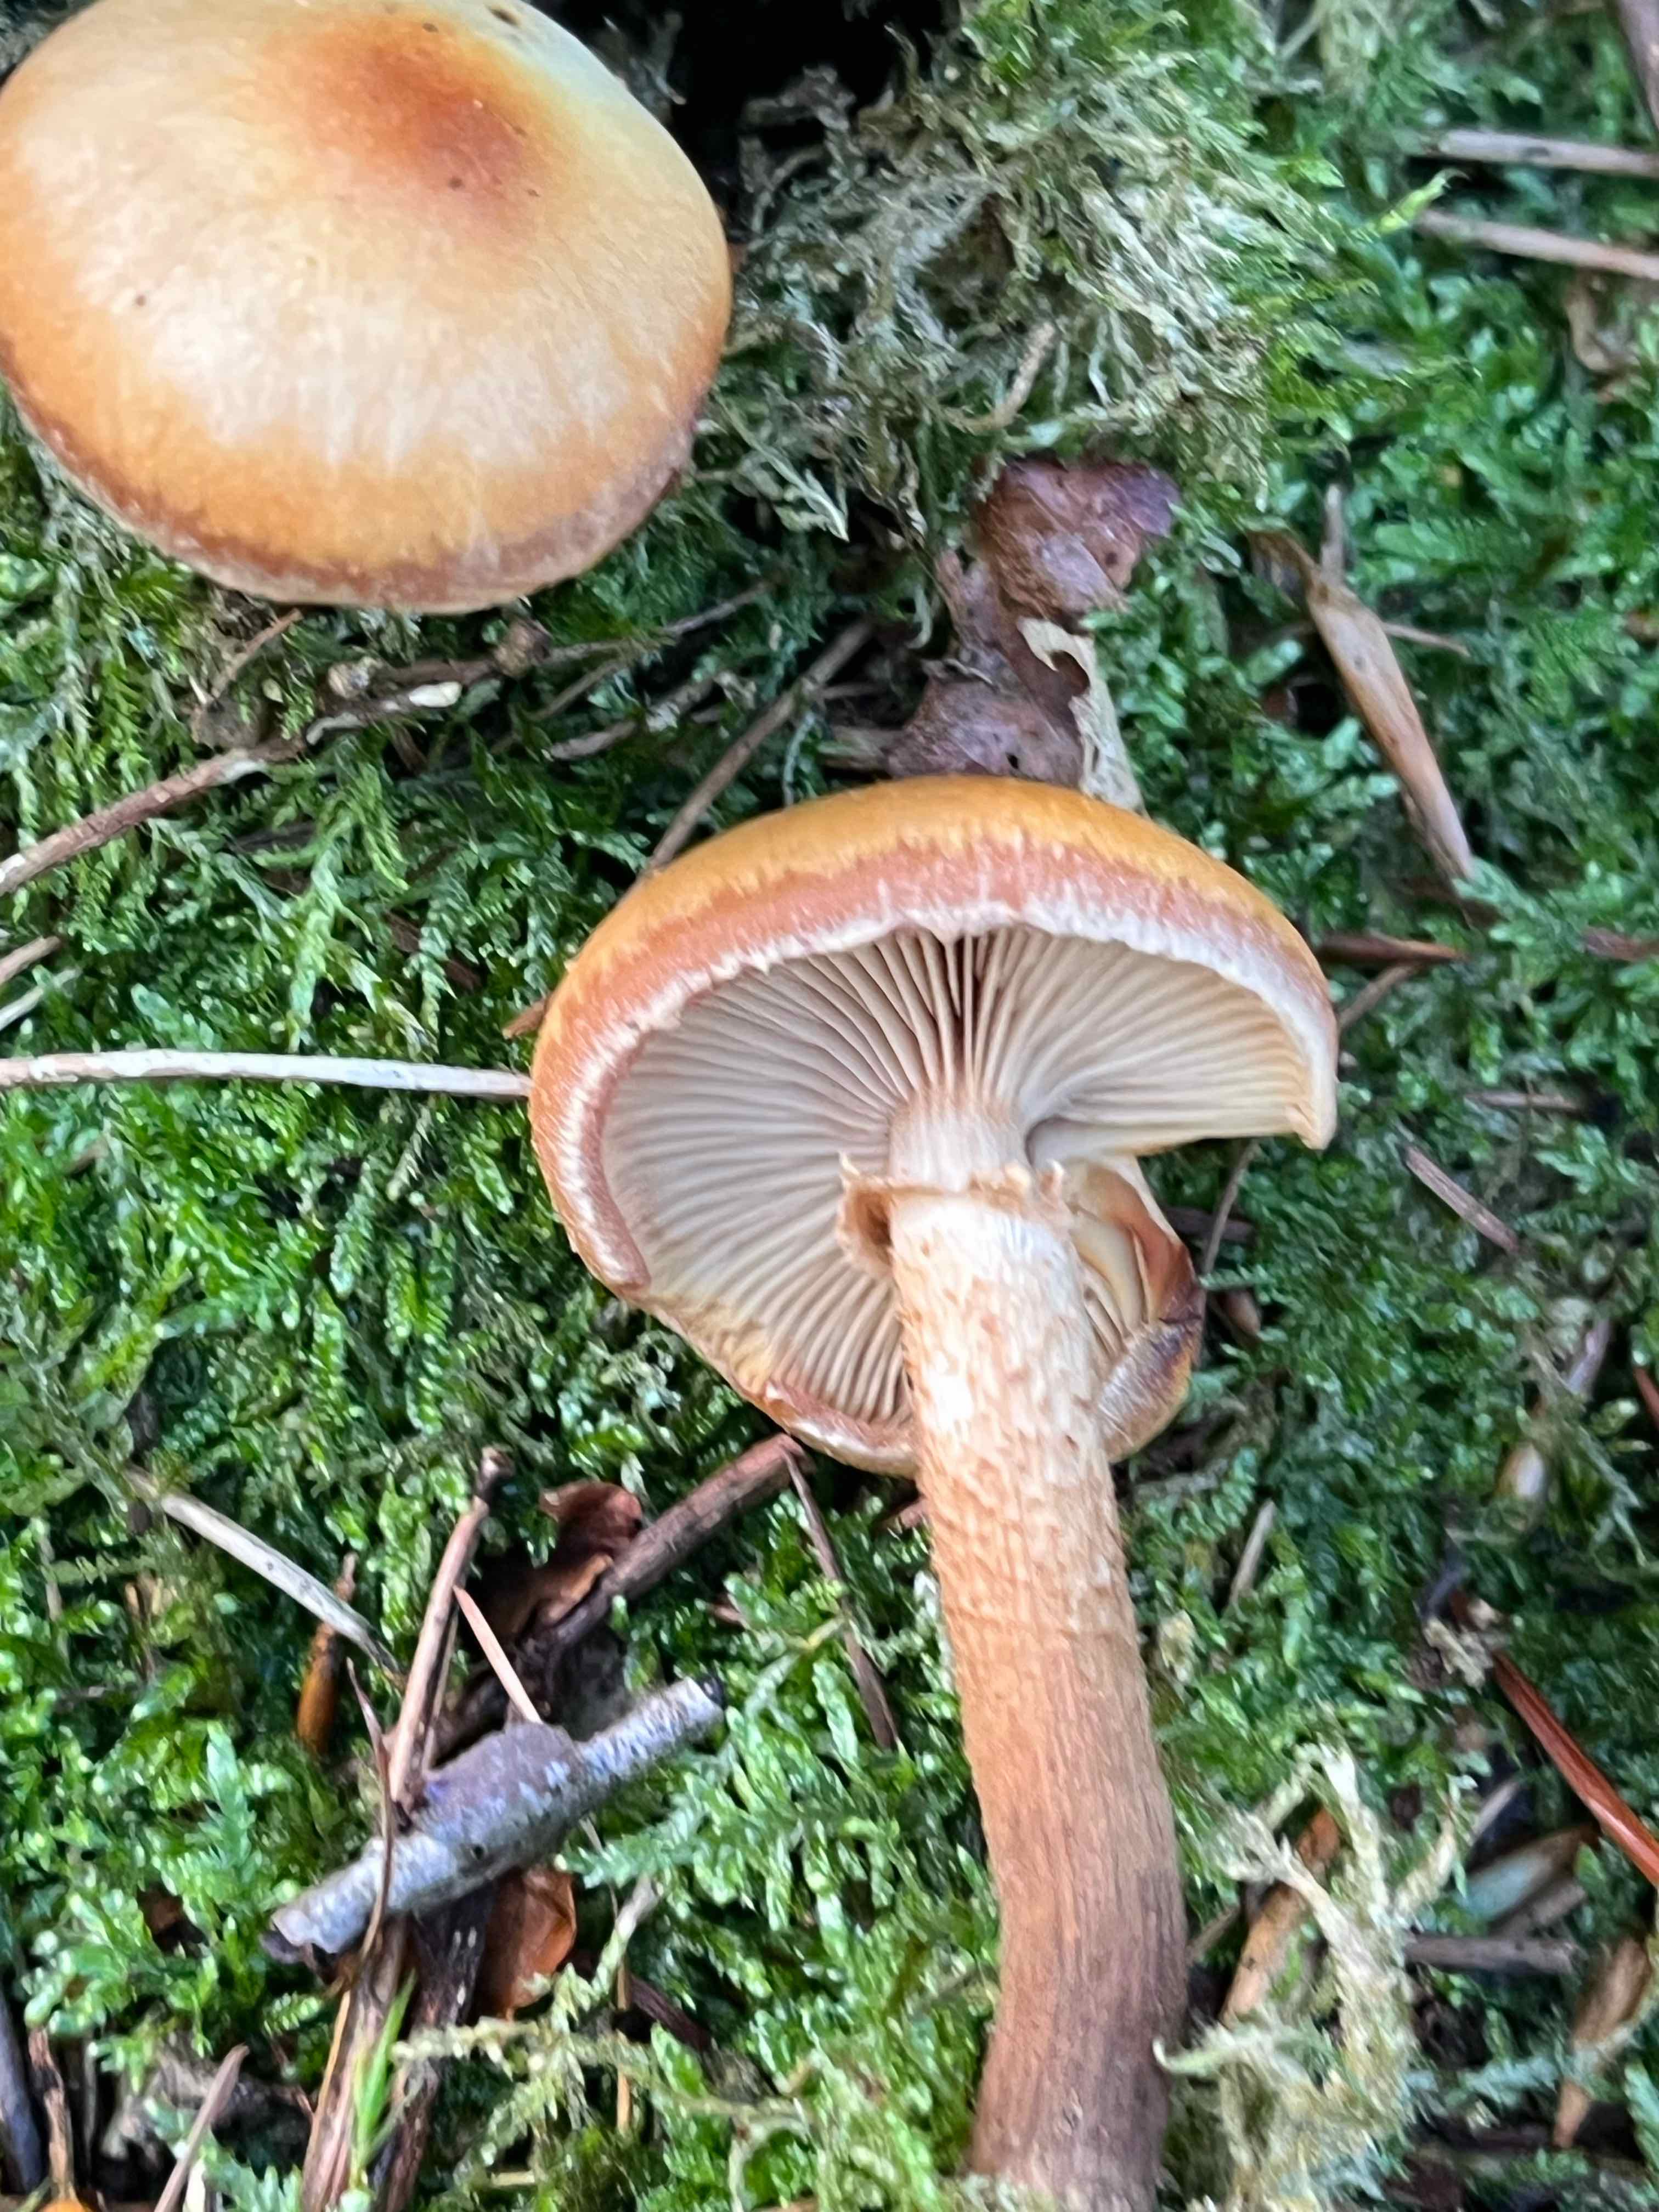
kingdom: Fungi
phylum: Basidiomycota
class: Agaricomycetes
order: Agaricales
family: Strophariaceae
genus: Kuehneromyces
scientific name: Kuehneromyces mutabilis
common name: foranderlig skælhat
